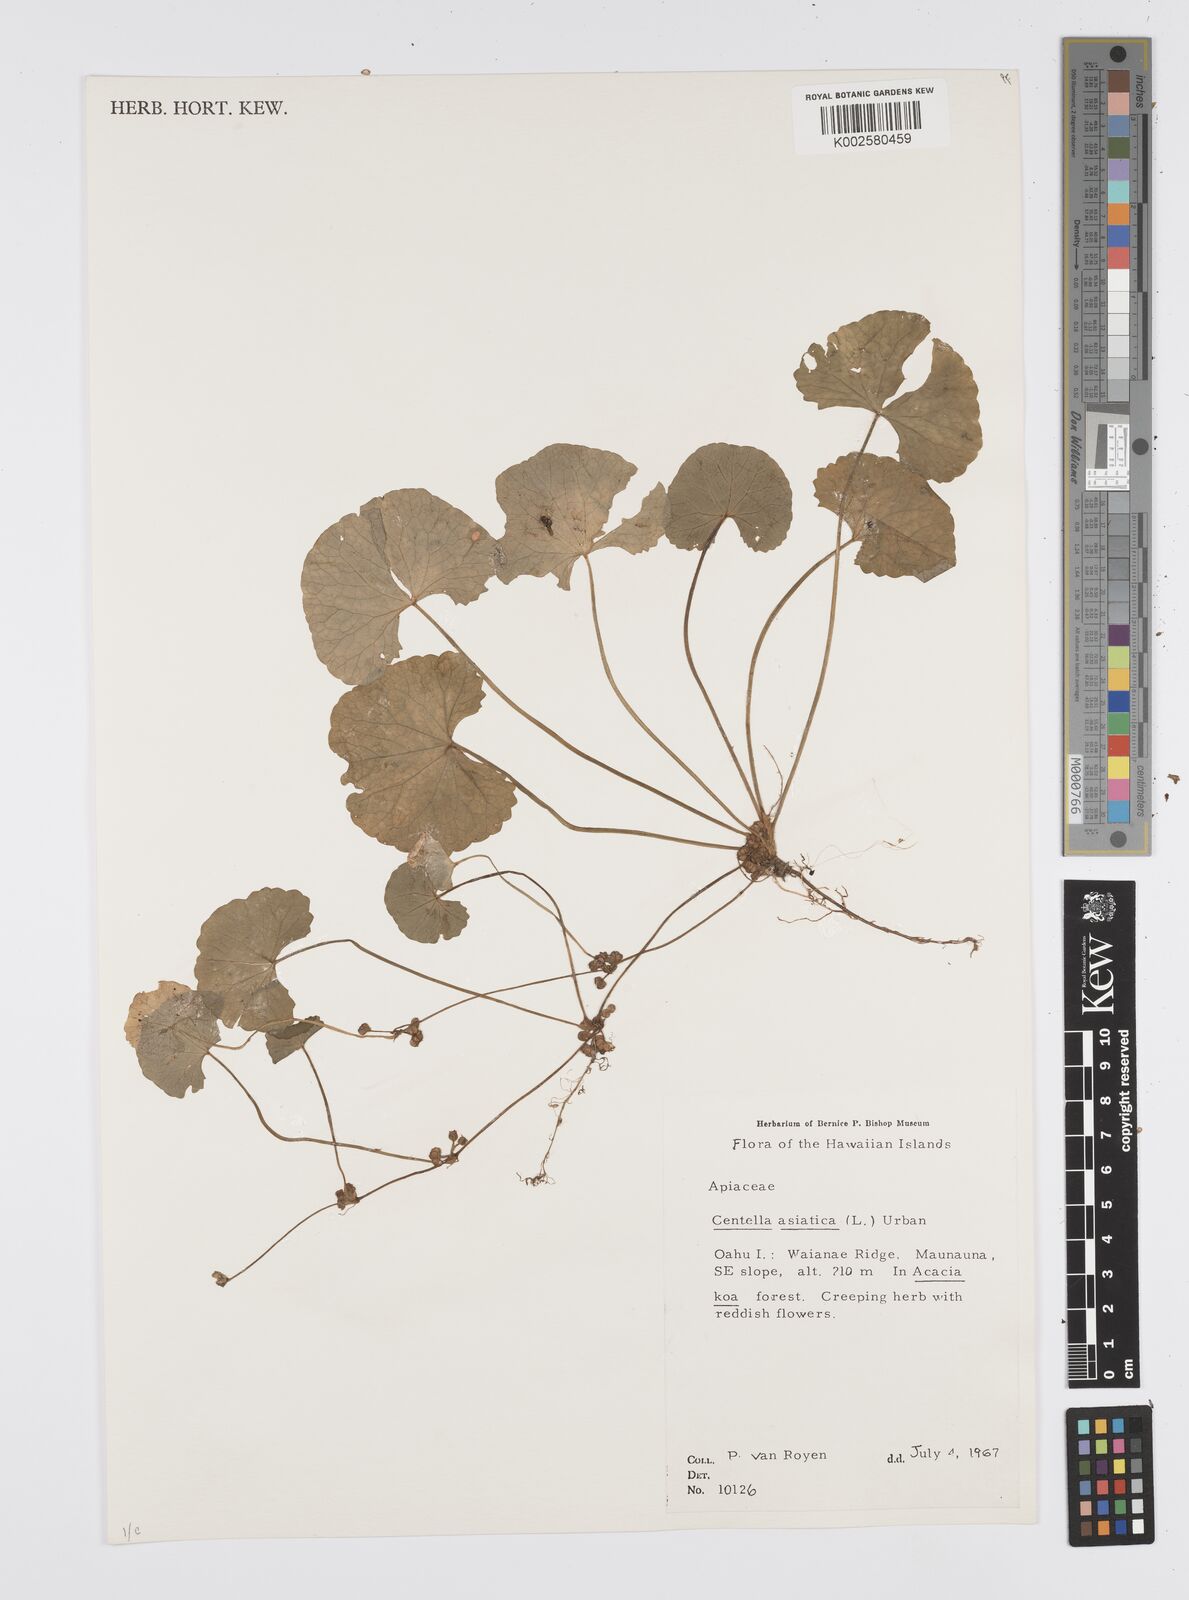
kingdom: Plantae
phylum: Tracheophyta
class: Magnoliopsida
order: Apiales
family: Apiaceae
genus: Centella
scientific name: Centella asiatica
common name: Spadeleaf
